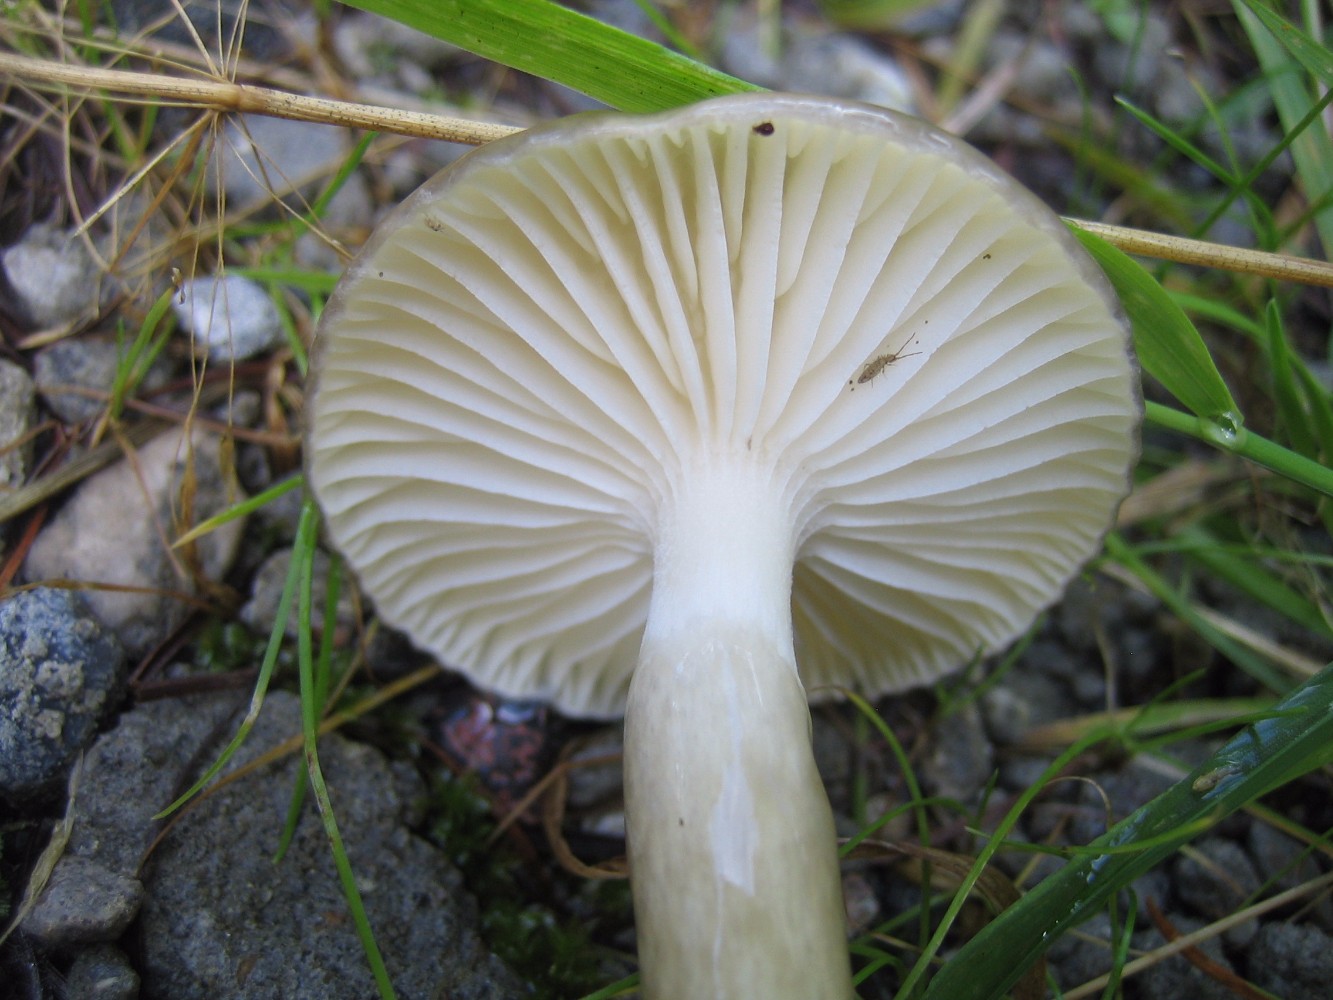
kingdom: Fungi
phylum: Basidiomycota
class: Agaricomycetes
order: Agaricales
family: Hygrophoraceae
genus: Hygrophorus
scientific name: Hygrophorus olivaceoalbus
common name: hvidbrun sneglehat
